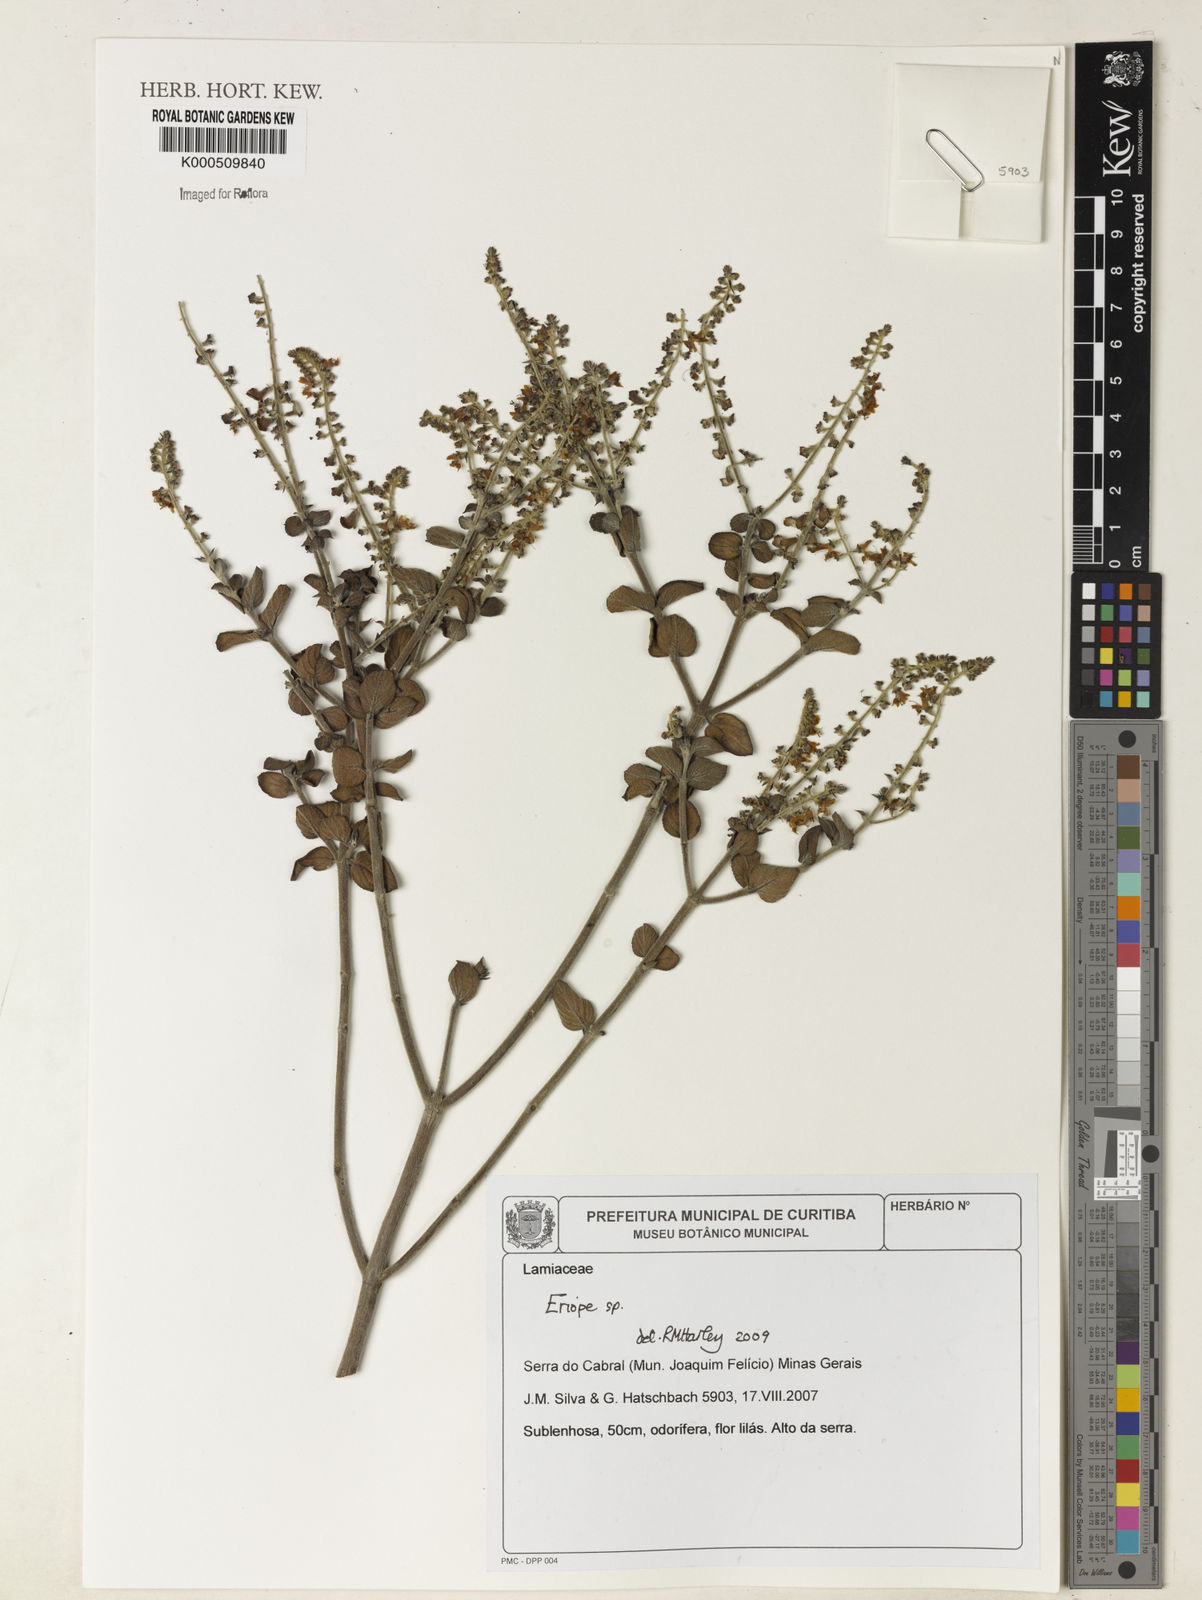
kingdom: Plantae
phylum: Tracheophyta
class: Magnoliopsida
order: Lamiales
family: Lamiaceae
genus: Eriope
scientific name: Eriope
